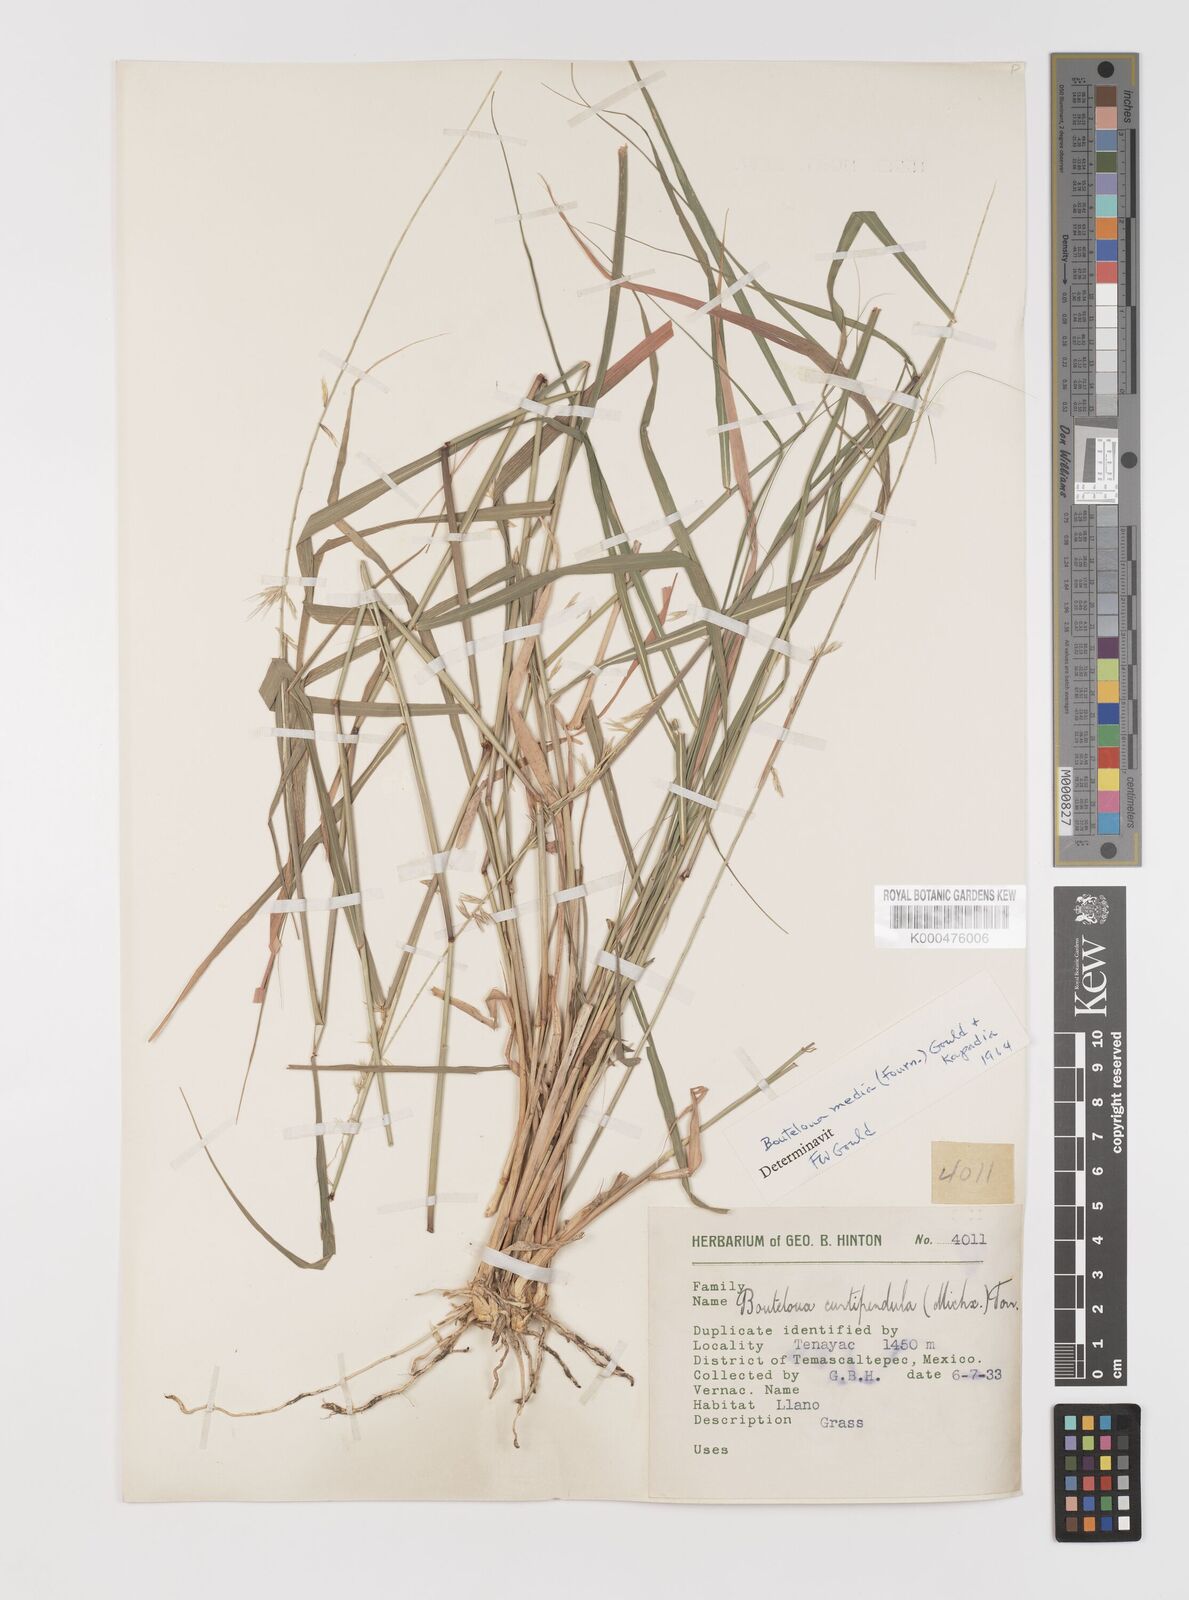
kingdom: Plantae
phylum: Tracheophyta
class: Liliopsida
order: Poales
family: Poaceae
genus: Bouteloua
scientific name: Bouteloua media
